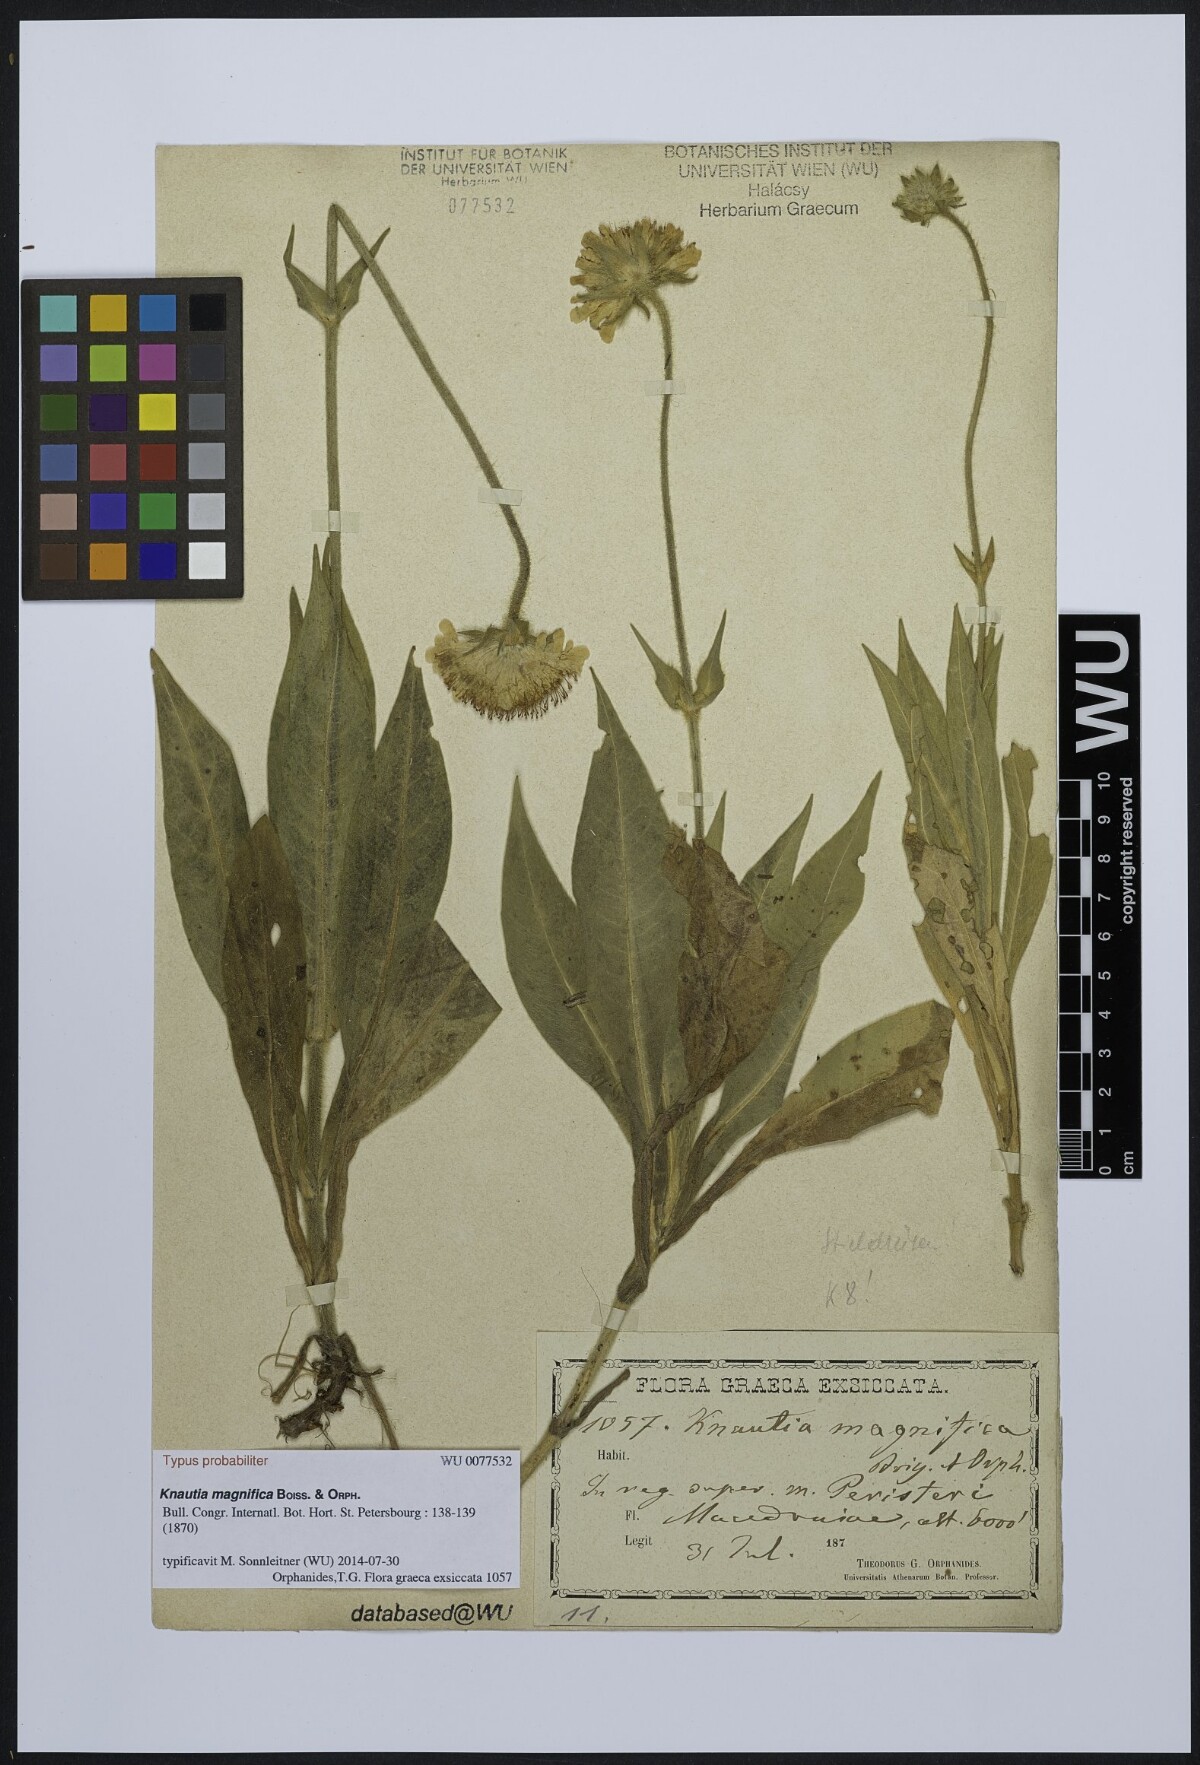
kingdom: Plantae
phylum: Tracheophyta
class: Magnoliopsida
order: Dipsacales
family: Caprifoliaceae
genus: Knautia
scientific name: Knautia magnifica
